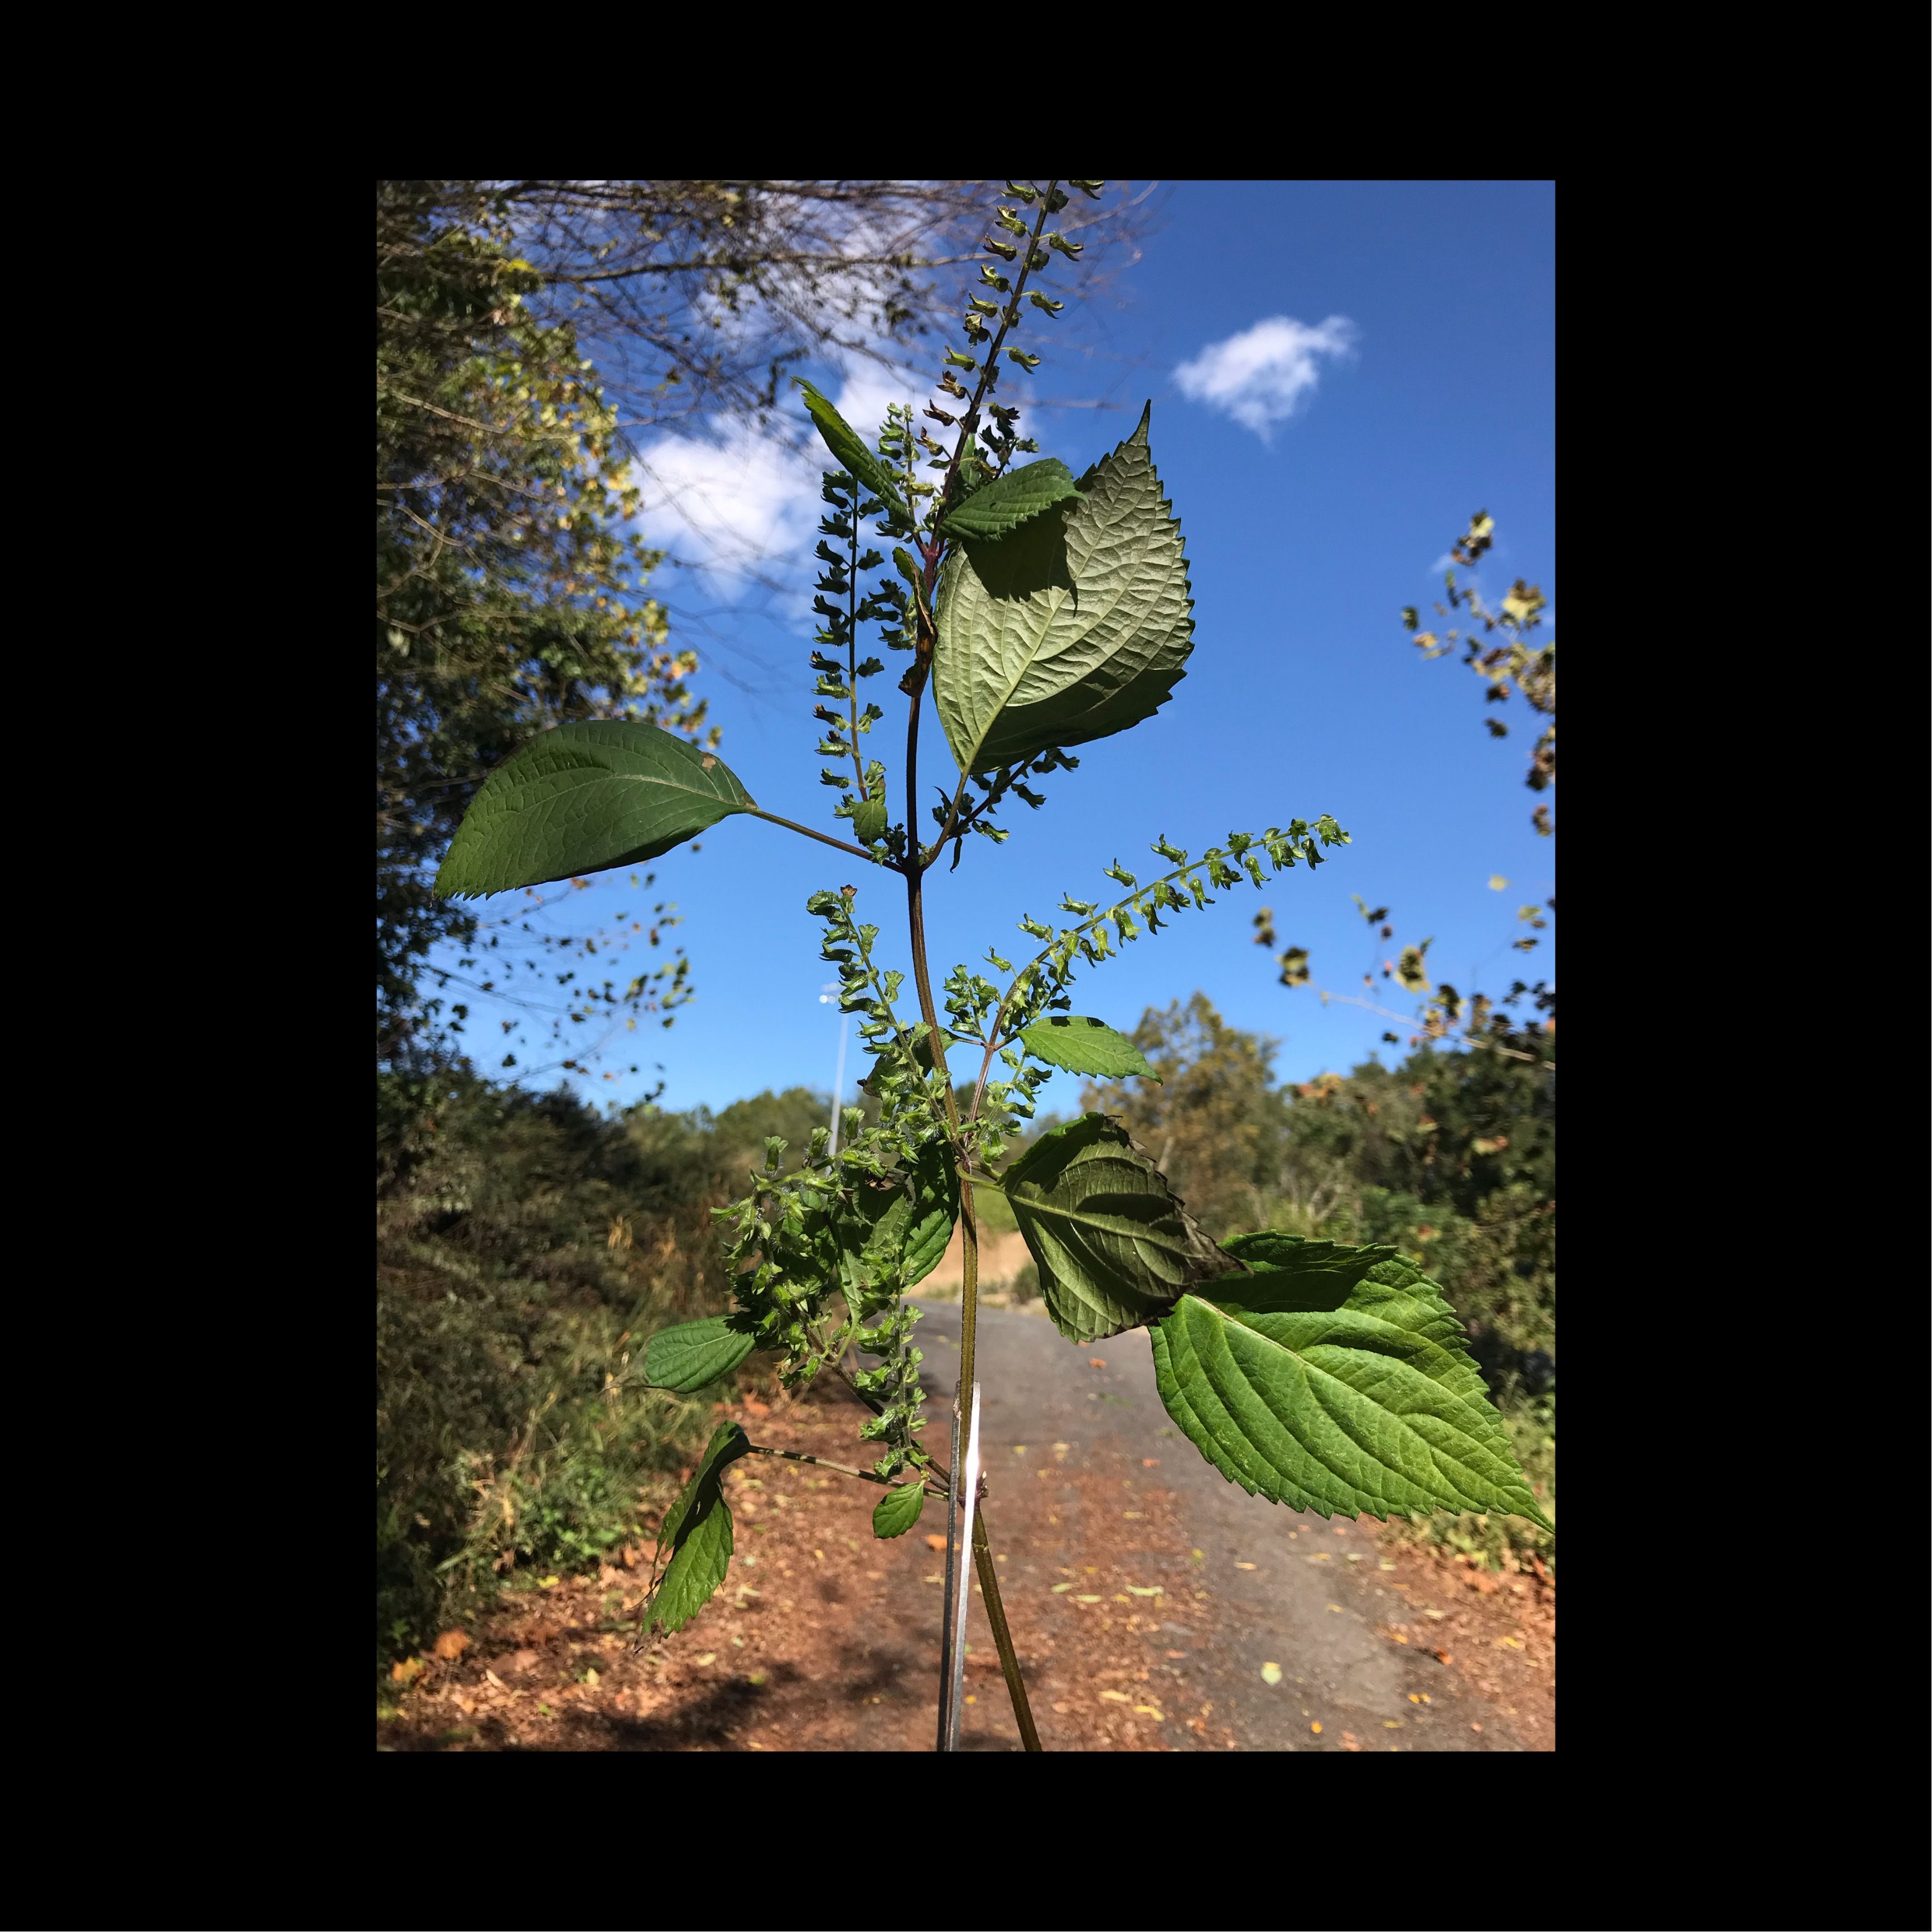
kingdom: Plantae
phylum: Tracheophyta
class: Magnoliopsida
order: Lamiales
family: Lamiaceae
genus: Perilla
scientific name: Perilla frutescens
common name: Perilla Mint
